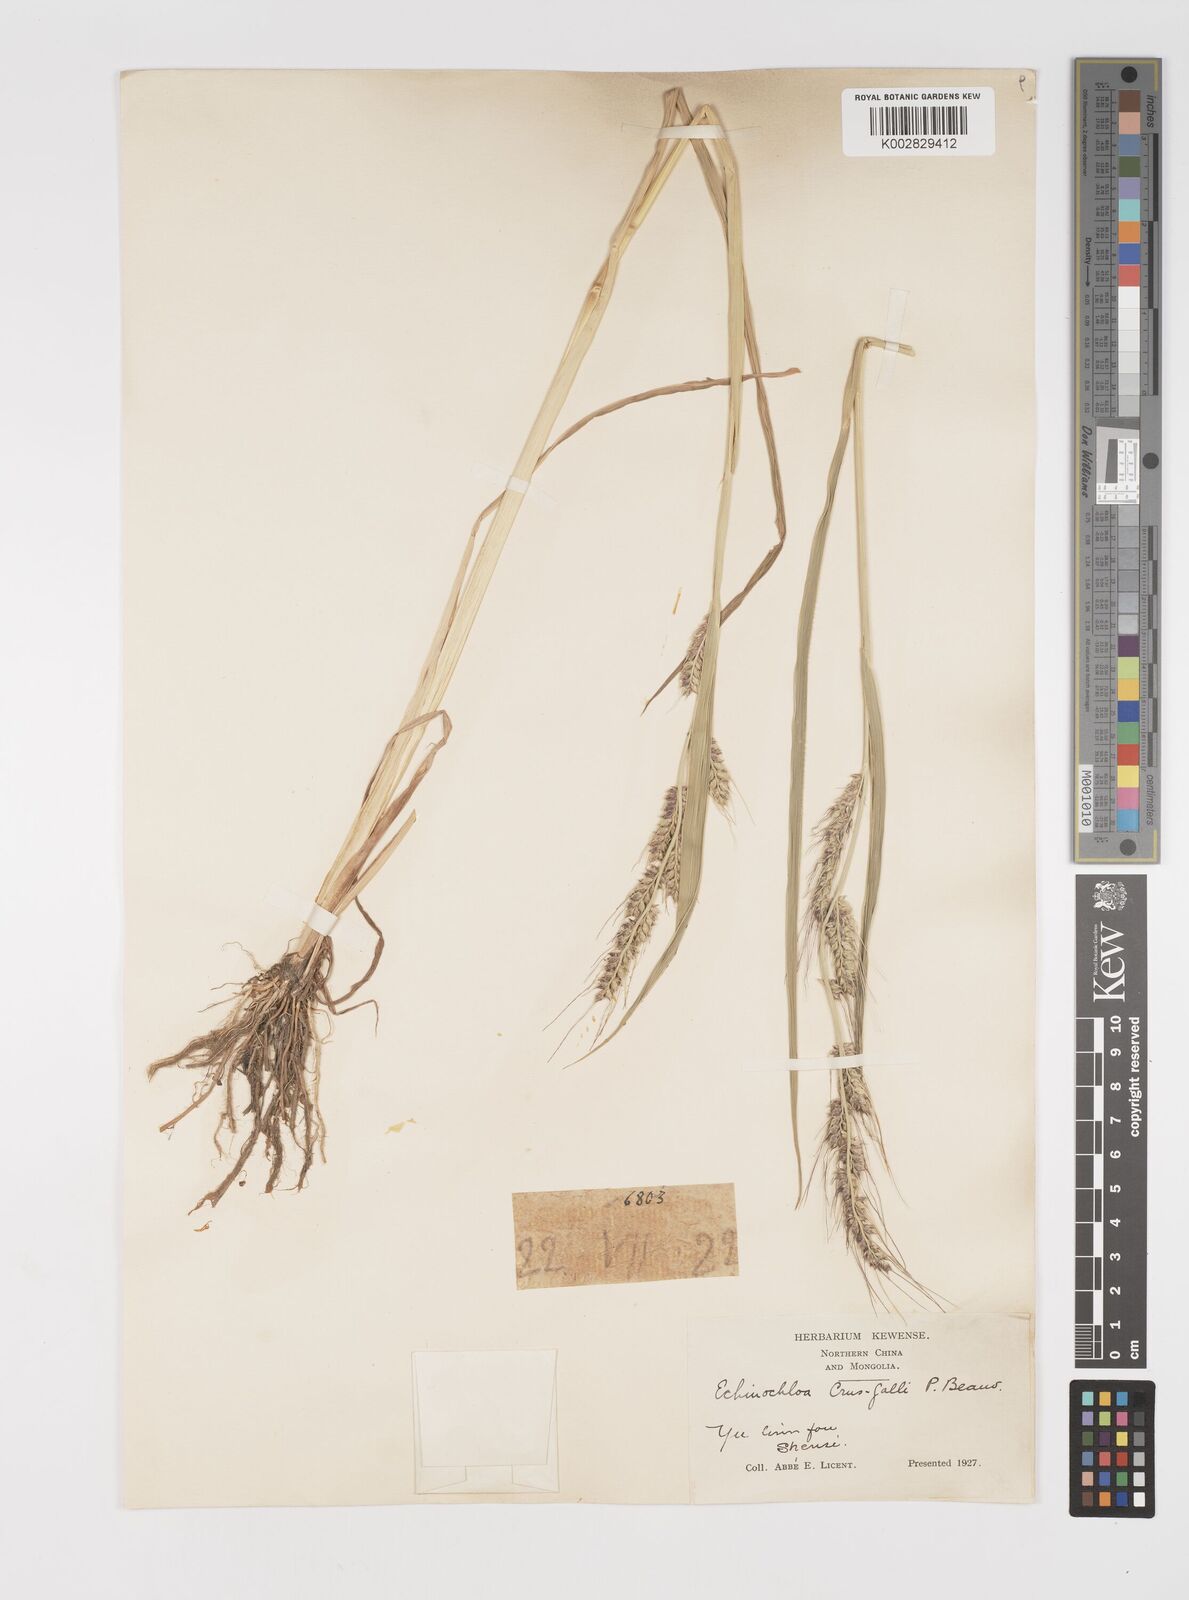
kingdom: Plantae
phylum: Tracheophyta
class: Liliopsida
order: Poales
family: Poaceae
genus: Echinochloa
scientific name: Echinochloa crus-galli
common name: Cockspur
